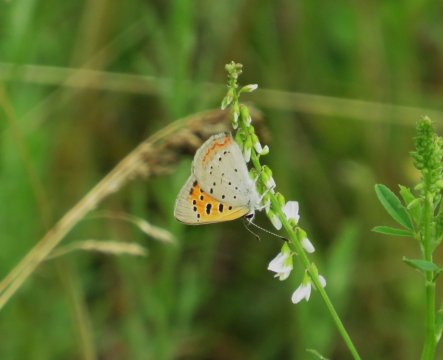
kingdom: Animalia
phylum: Arthropoda
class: Insecta
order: Lepidoptera
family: Lycaenidae
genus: Lycaena
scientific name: Lycaena phlaeas
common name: American Copper
